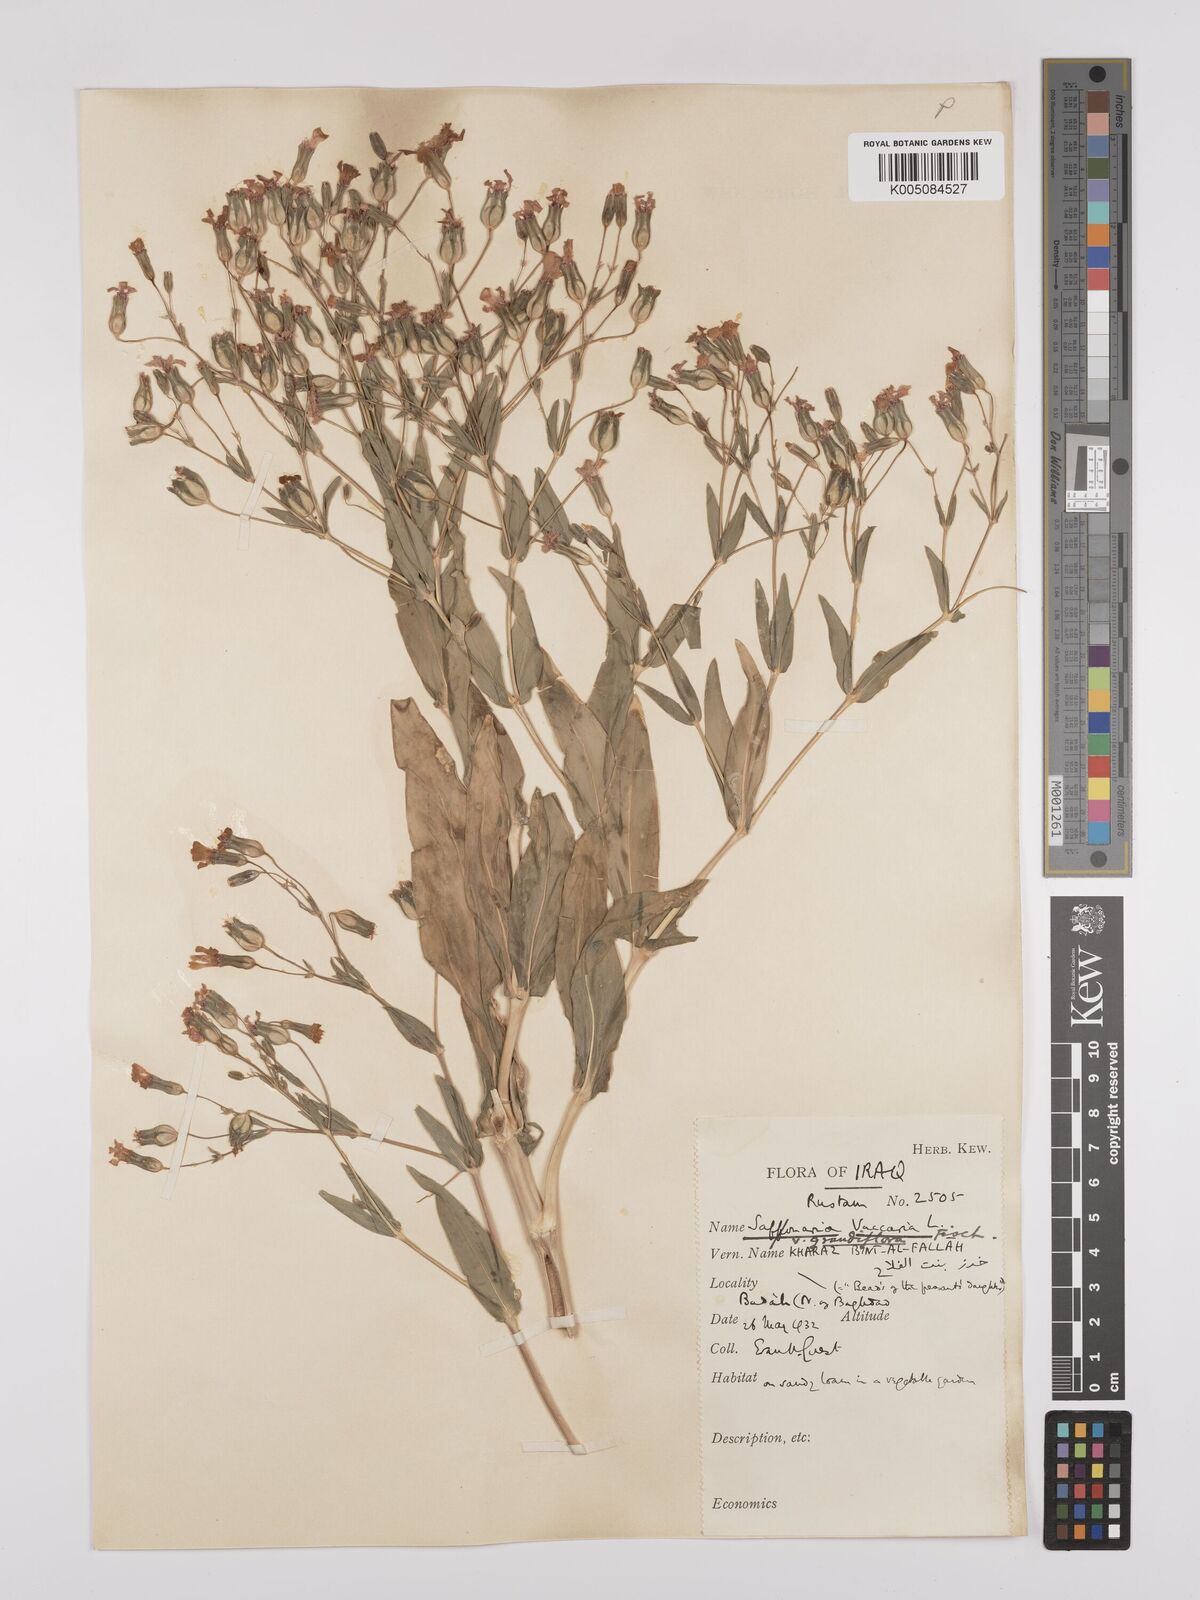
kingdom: Plantae
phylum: Tracheophyta
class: Magnoliopsida
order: Caryophyllales
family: Caryophyllaceae
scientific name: Caryophyllaceae
